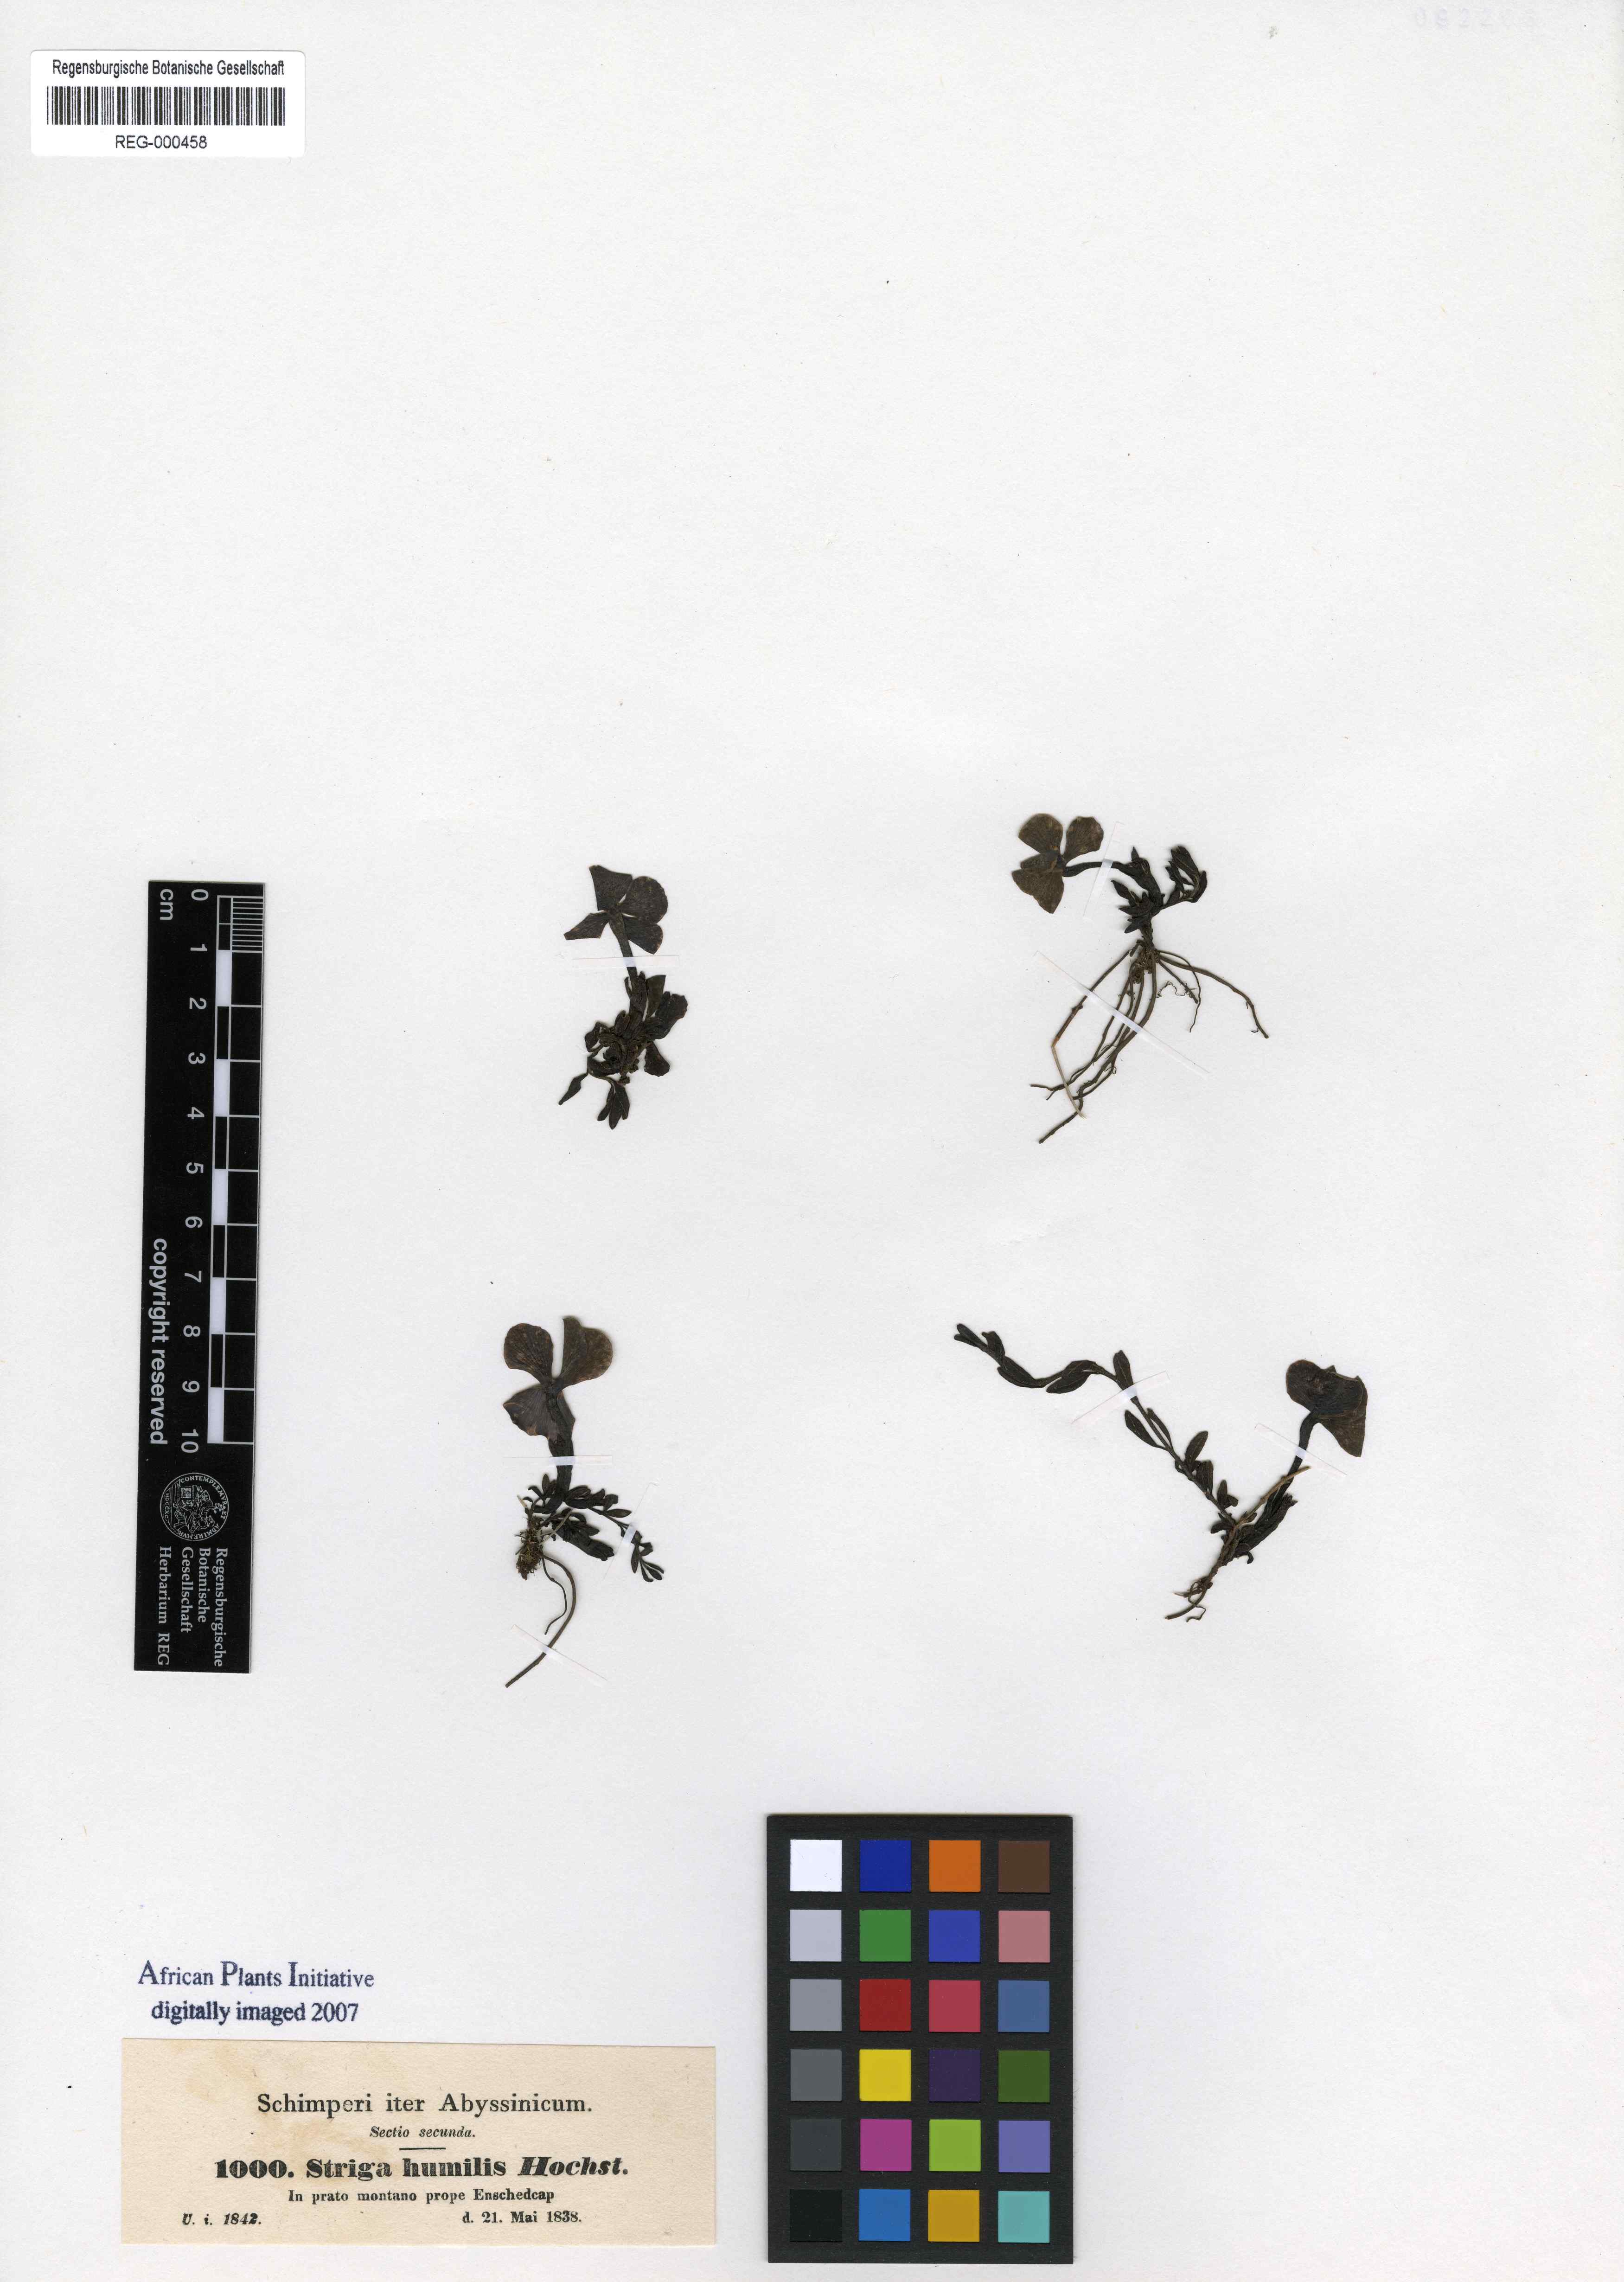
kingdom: Plantae
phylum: Tracheophyta
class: Magnoliopsida
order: Lamiales
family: Orobanchaceae
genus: Cycniopsis
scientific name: Cycniopsis humilis
